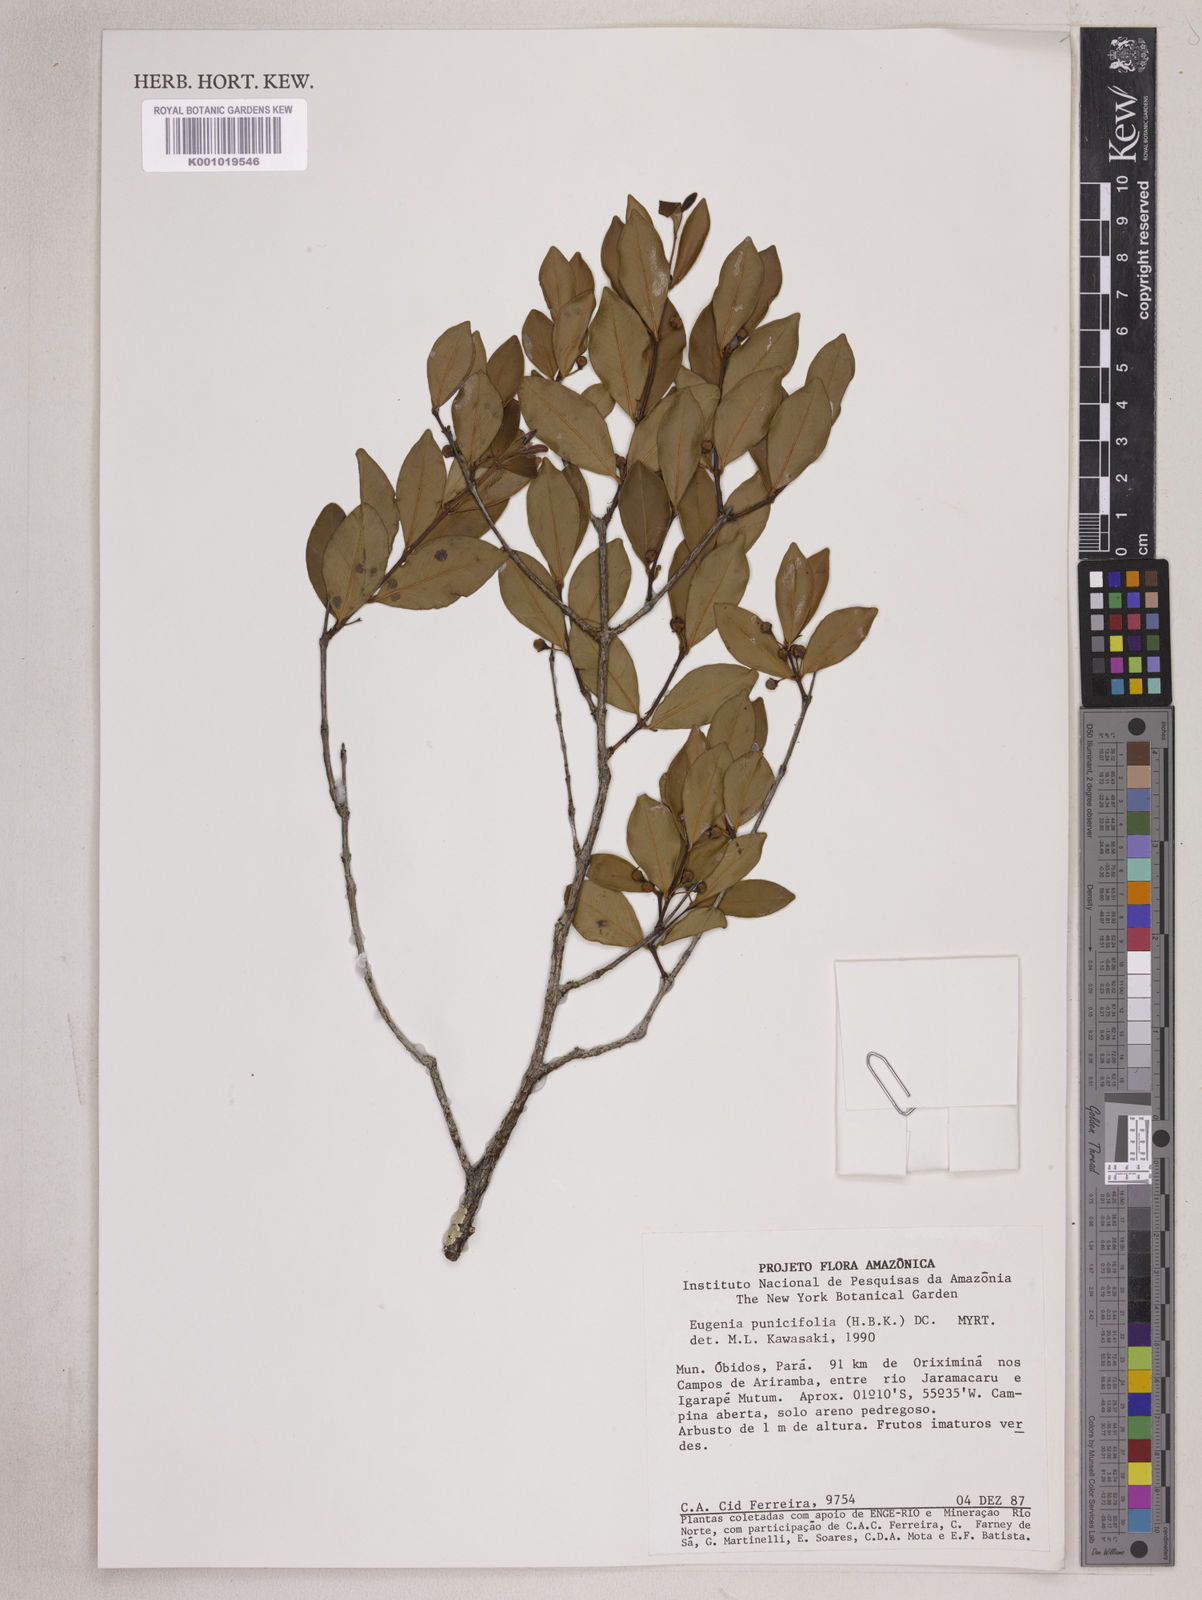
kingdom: Plantae
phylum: Tracheophyta
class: Magnoliopsida
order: Myrtales
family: Myrtaceae
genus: Eugenia
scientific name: Eugenia punicifolia
